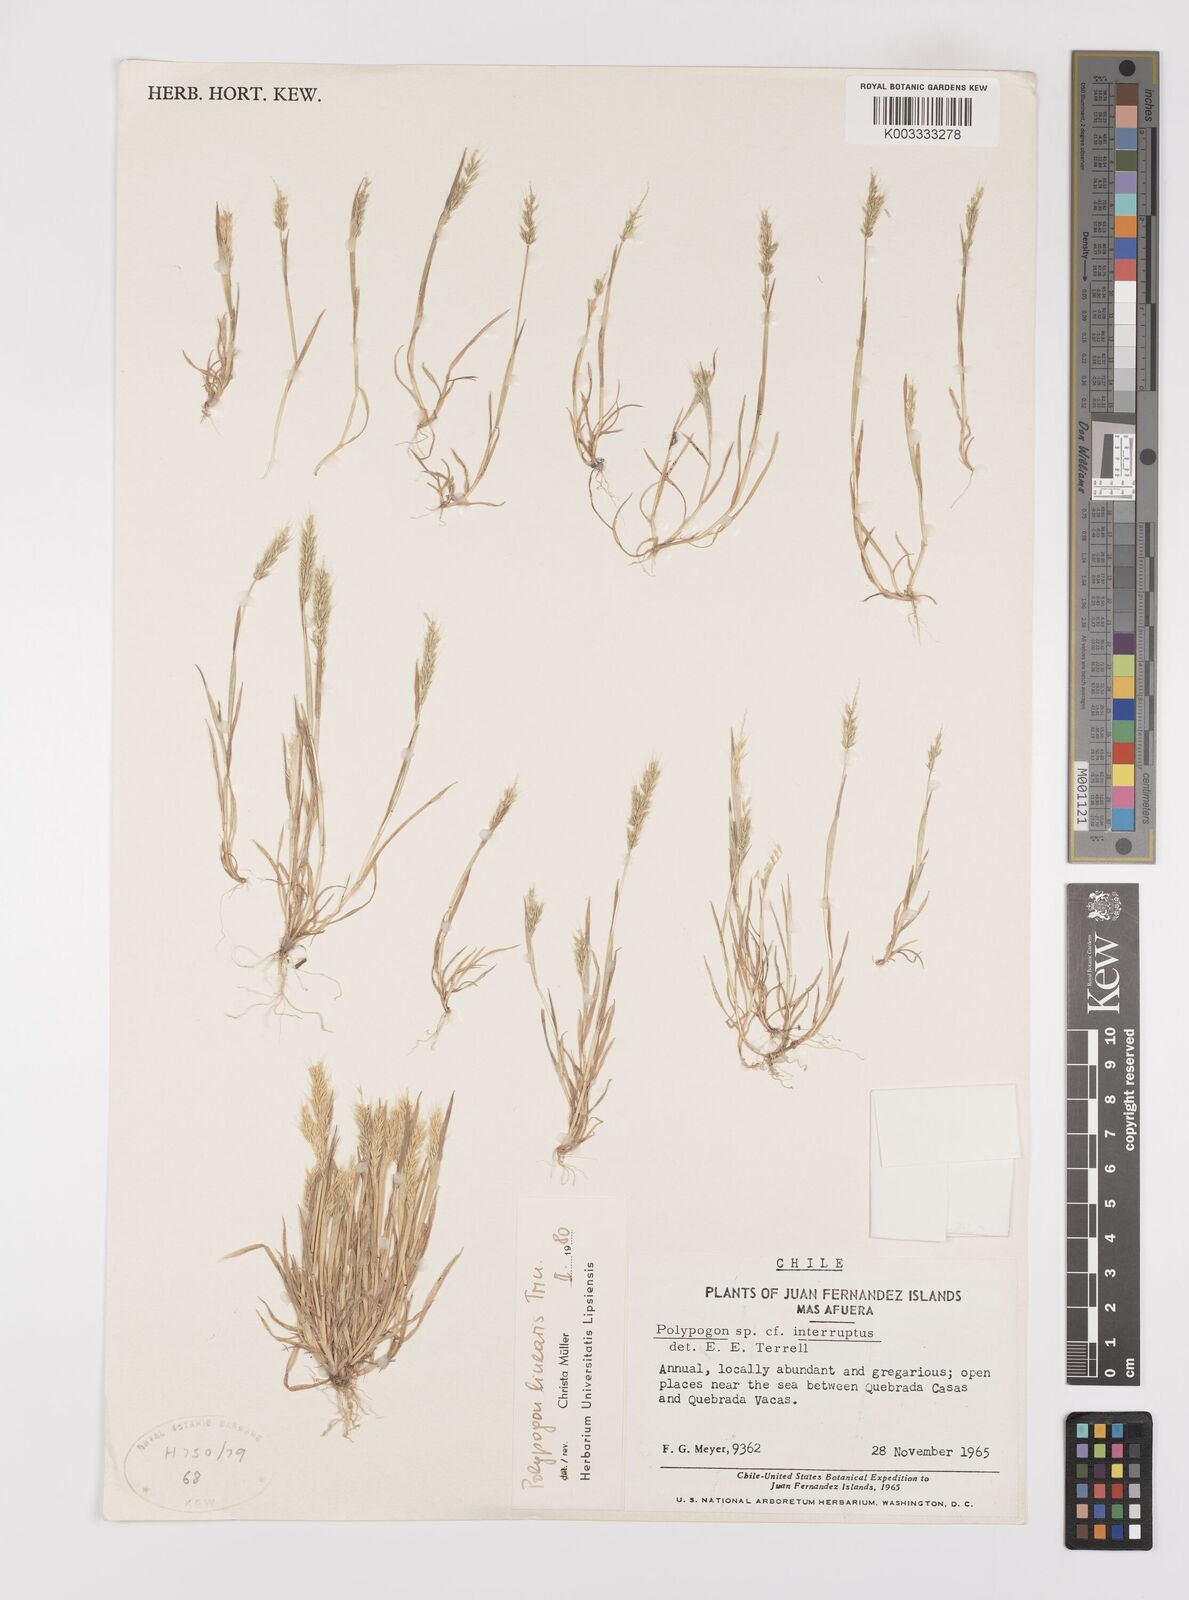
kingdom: Plantae
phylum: Tracheophyta
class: Liliopsida
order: Poales
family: Poaceae
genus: Polypogon
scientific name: Polypogon linearis
